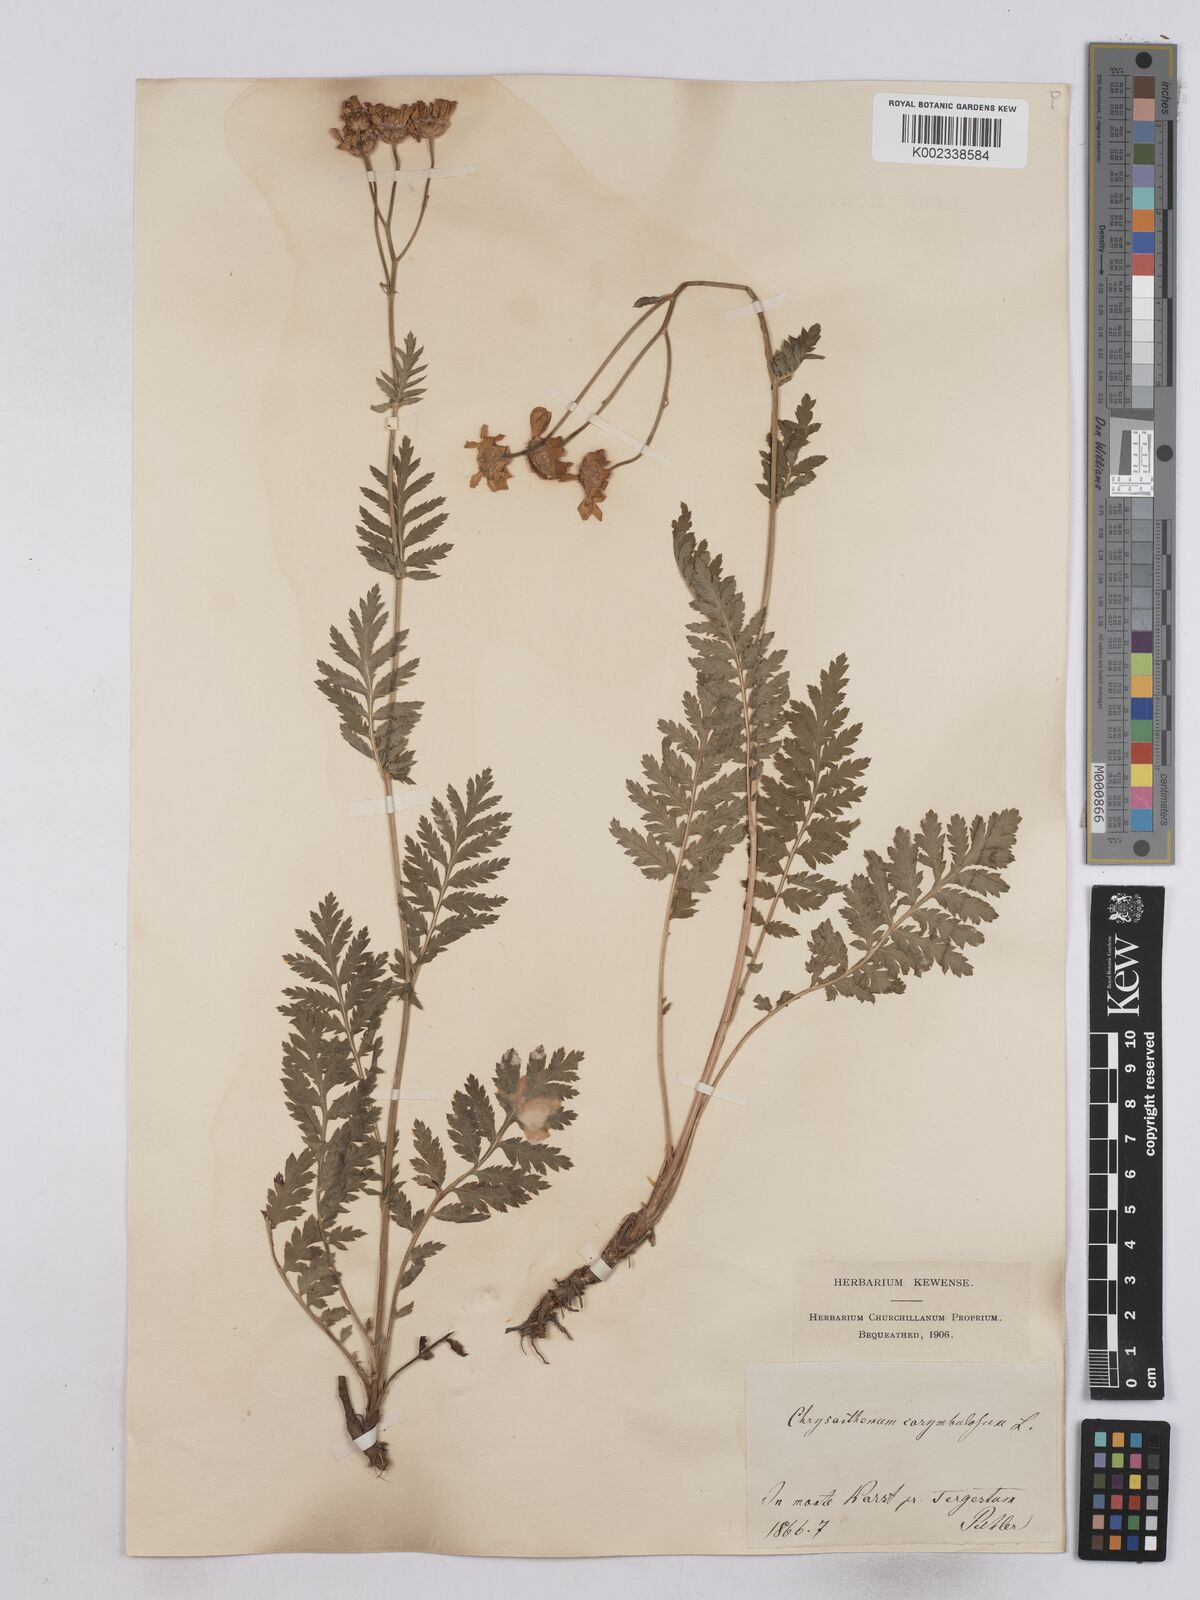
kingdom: Plantae
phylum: Tracheophyta
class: Magnoliopsida
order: Asterales
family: Asteraceae
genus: Tanacetum
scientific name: Tanacetum corymbosum
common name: Scentless feverfew
